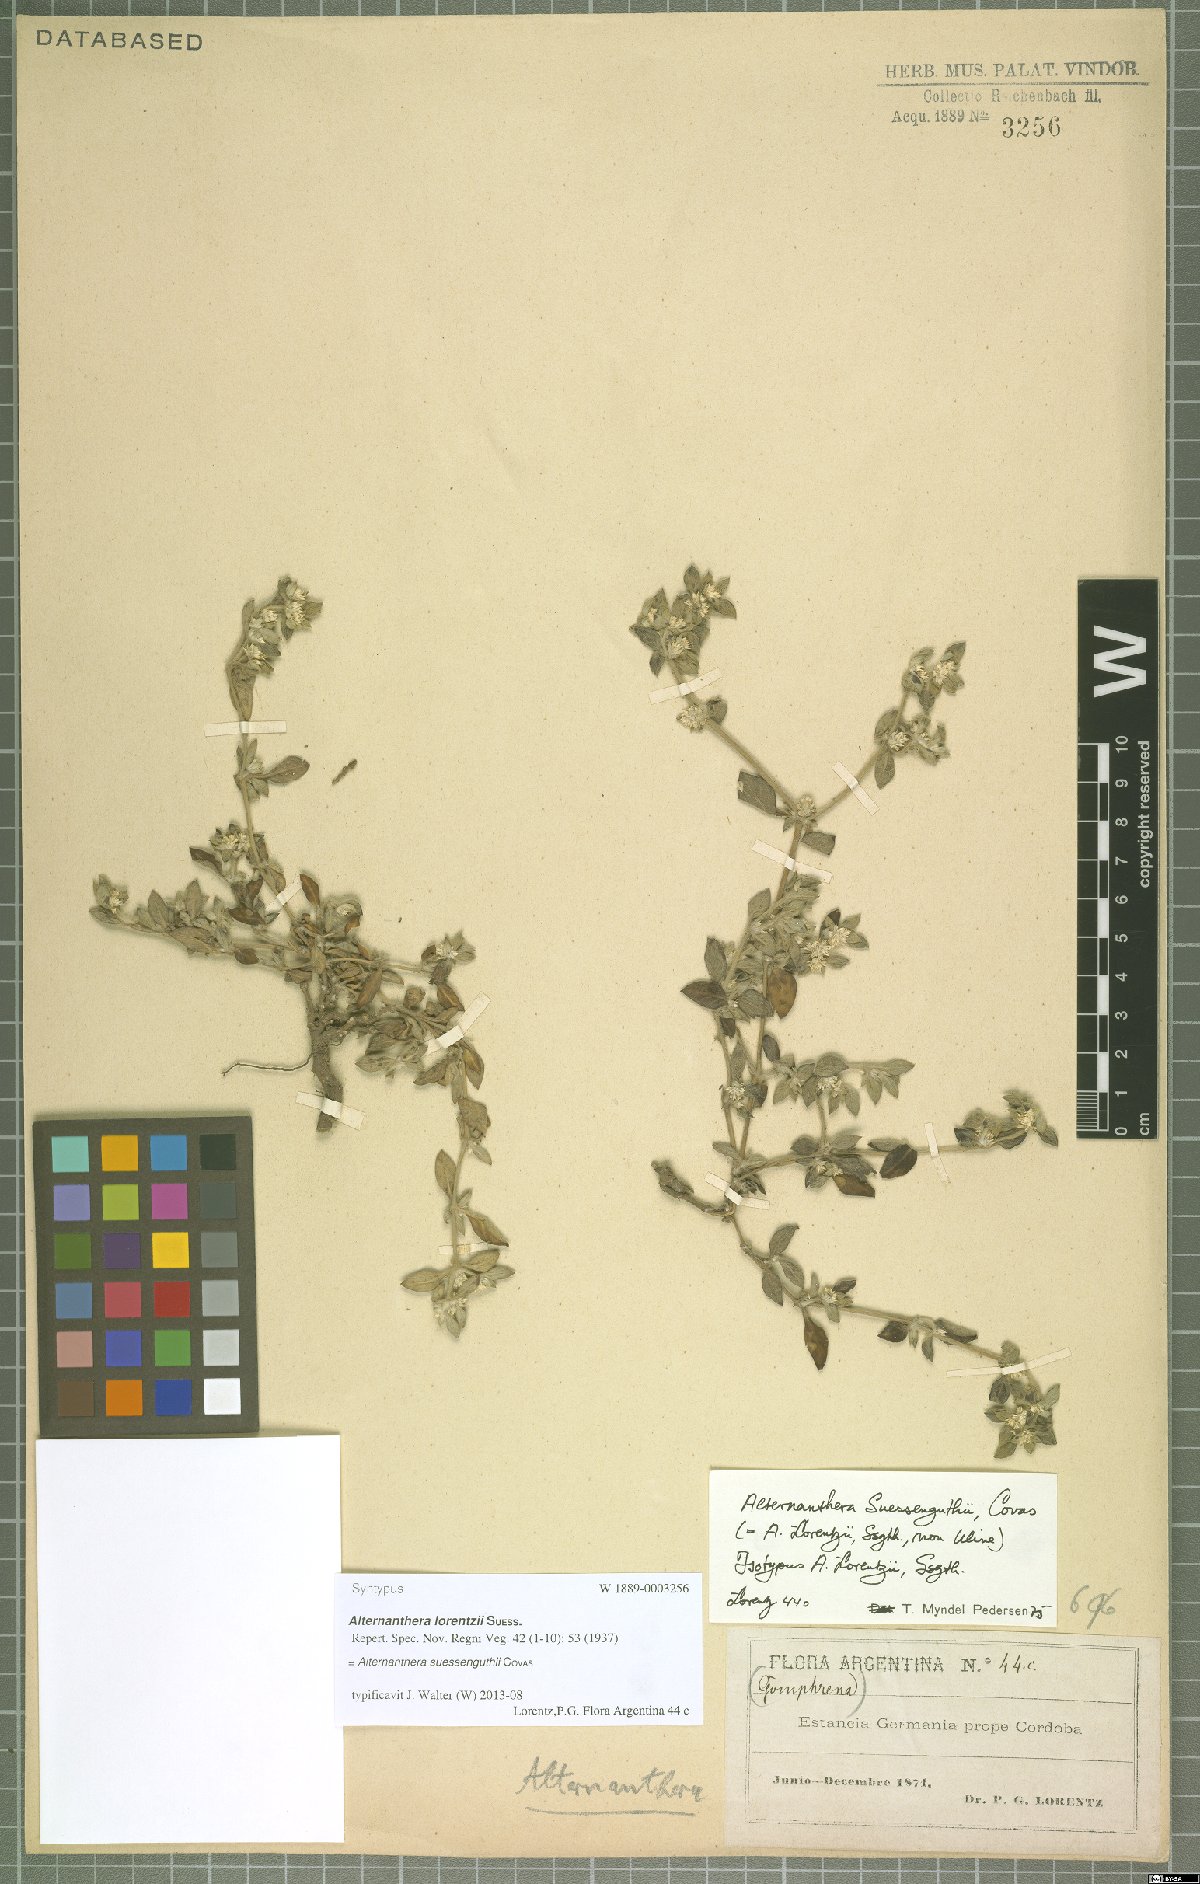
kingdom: Plantae
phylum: Tracheophyta
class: Magnoliopsida
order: Caryophyllales
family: Amaranthaceae
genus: Alternanthera
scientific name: Alternanthera suessenguthii
